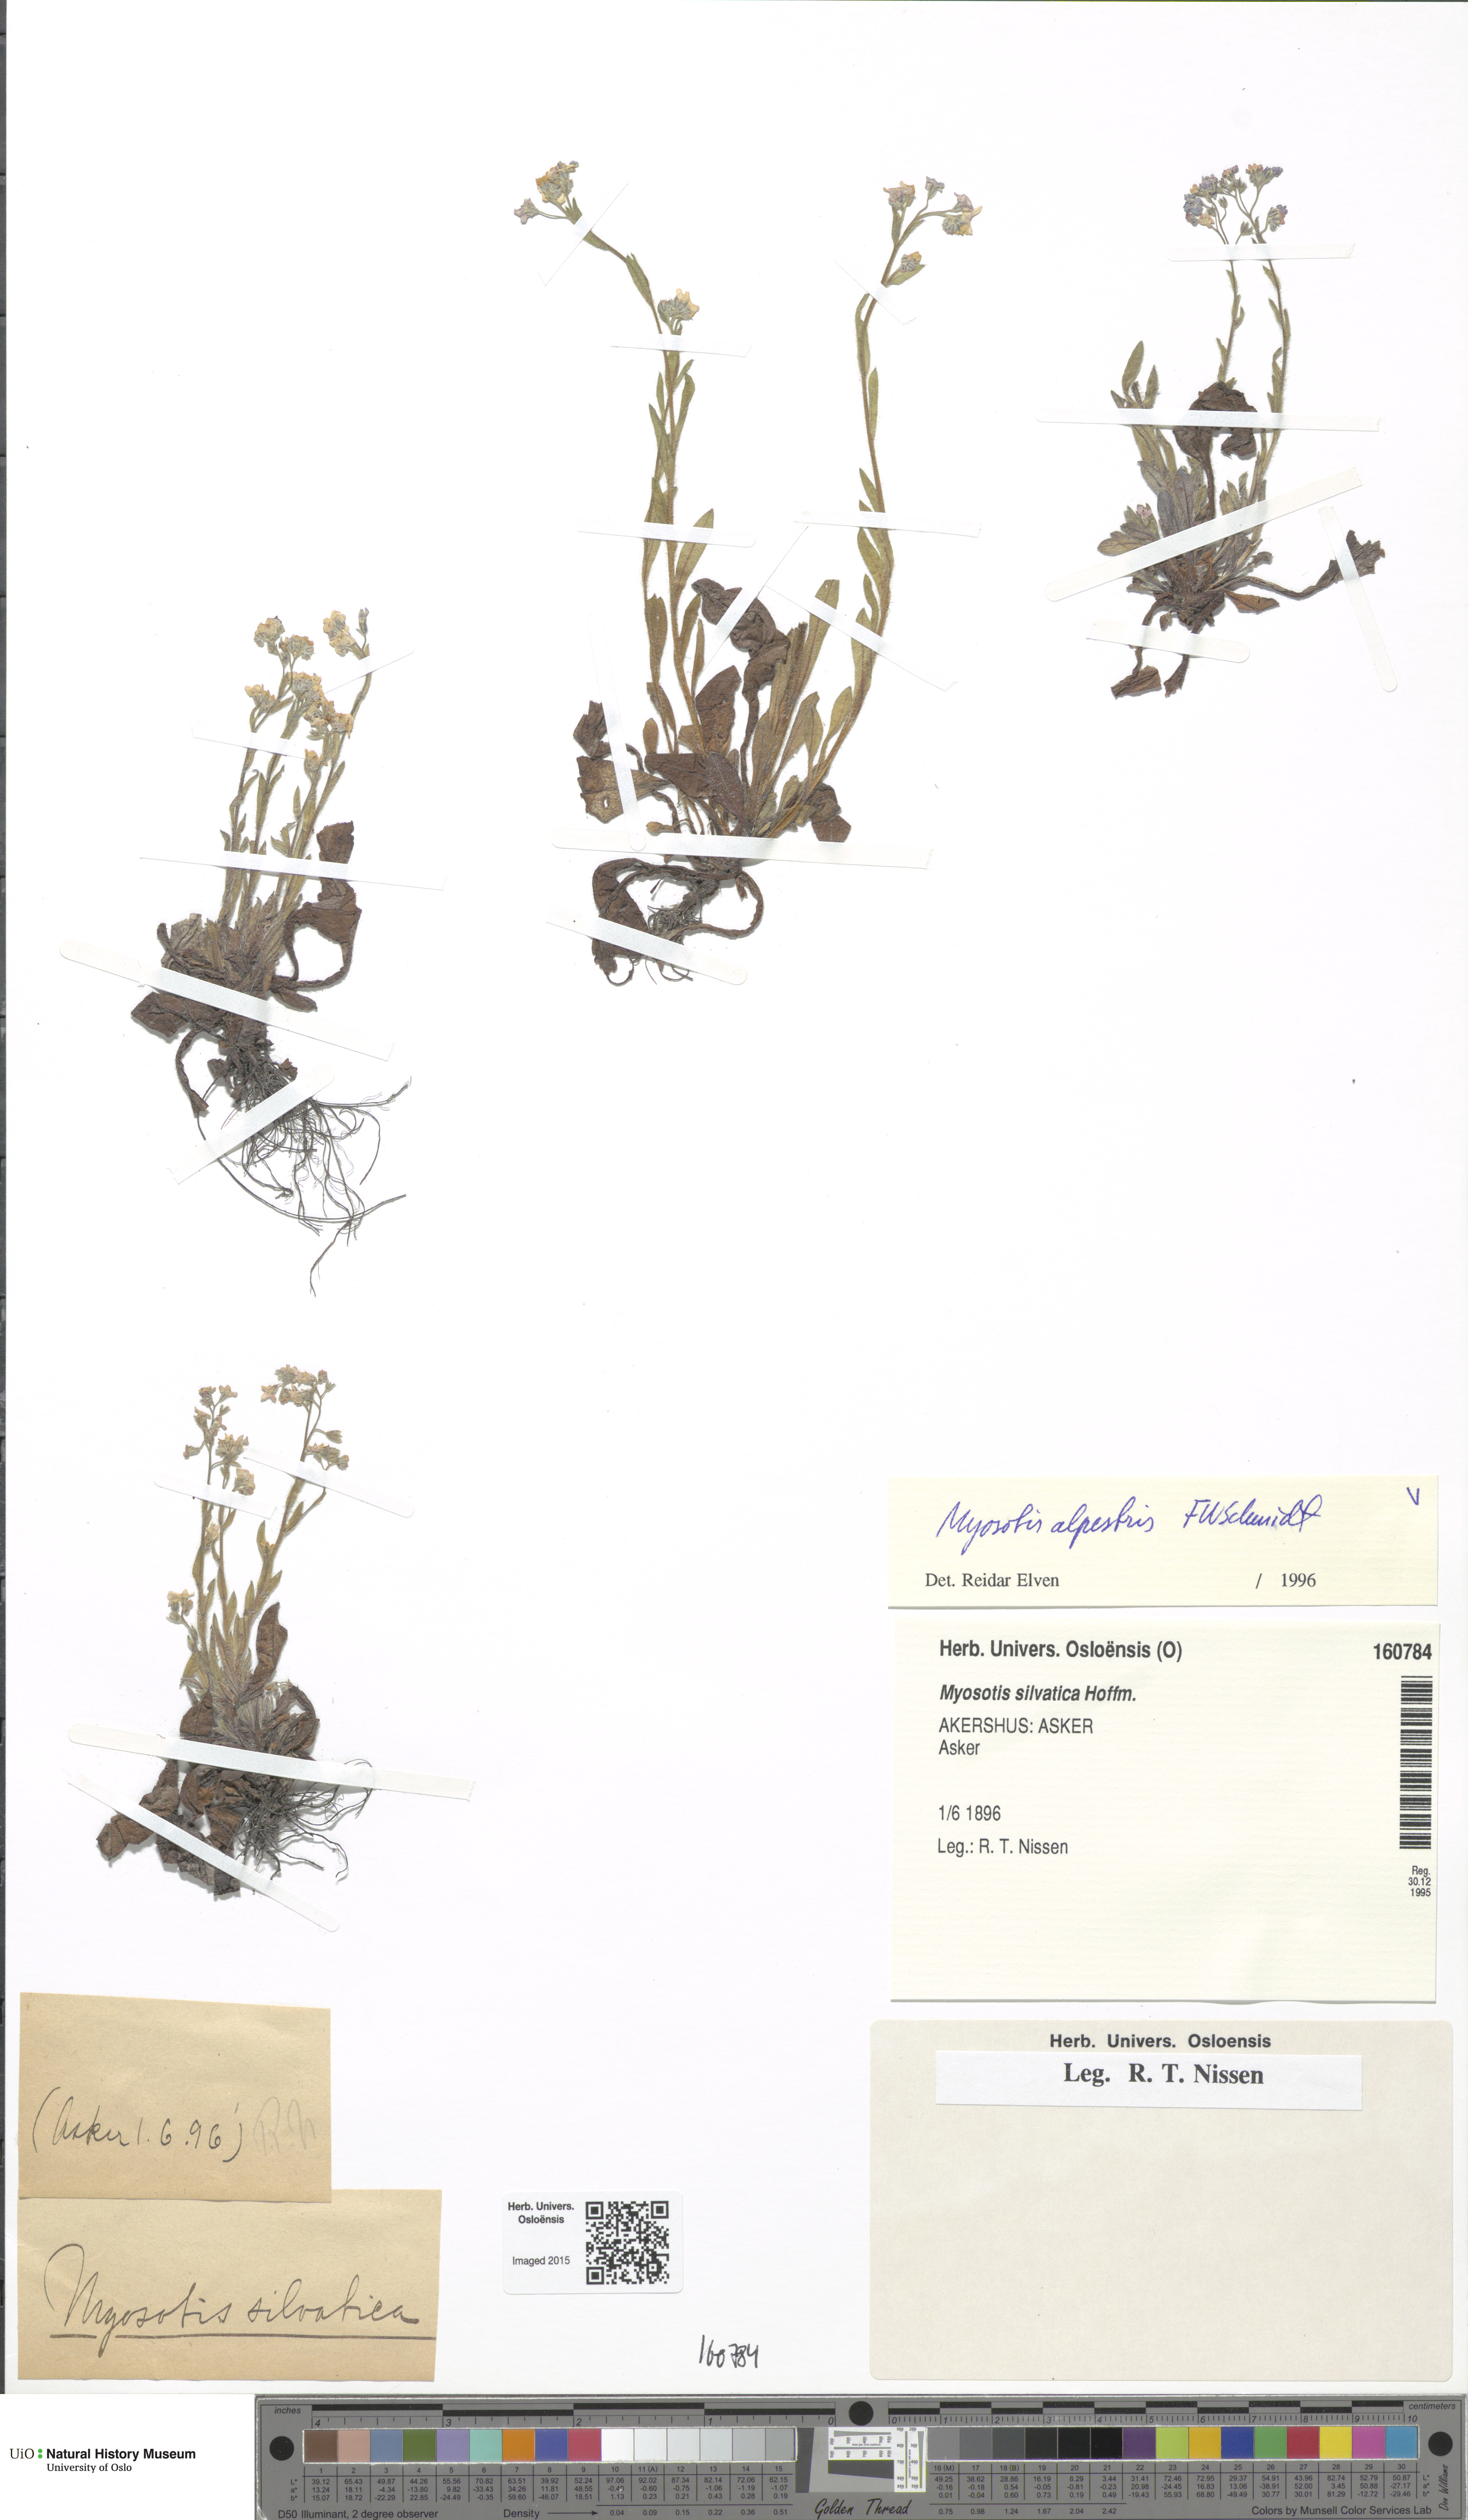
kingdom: Plantae
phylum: Tracheophyta
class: Magnoliopsida
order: Boraginales
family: Boraginaceae
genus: Myosotis
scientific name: Myosotis sylvatica
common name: Wood forget-me-not
